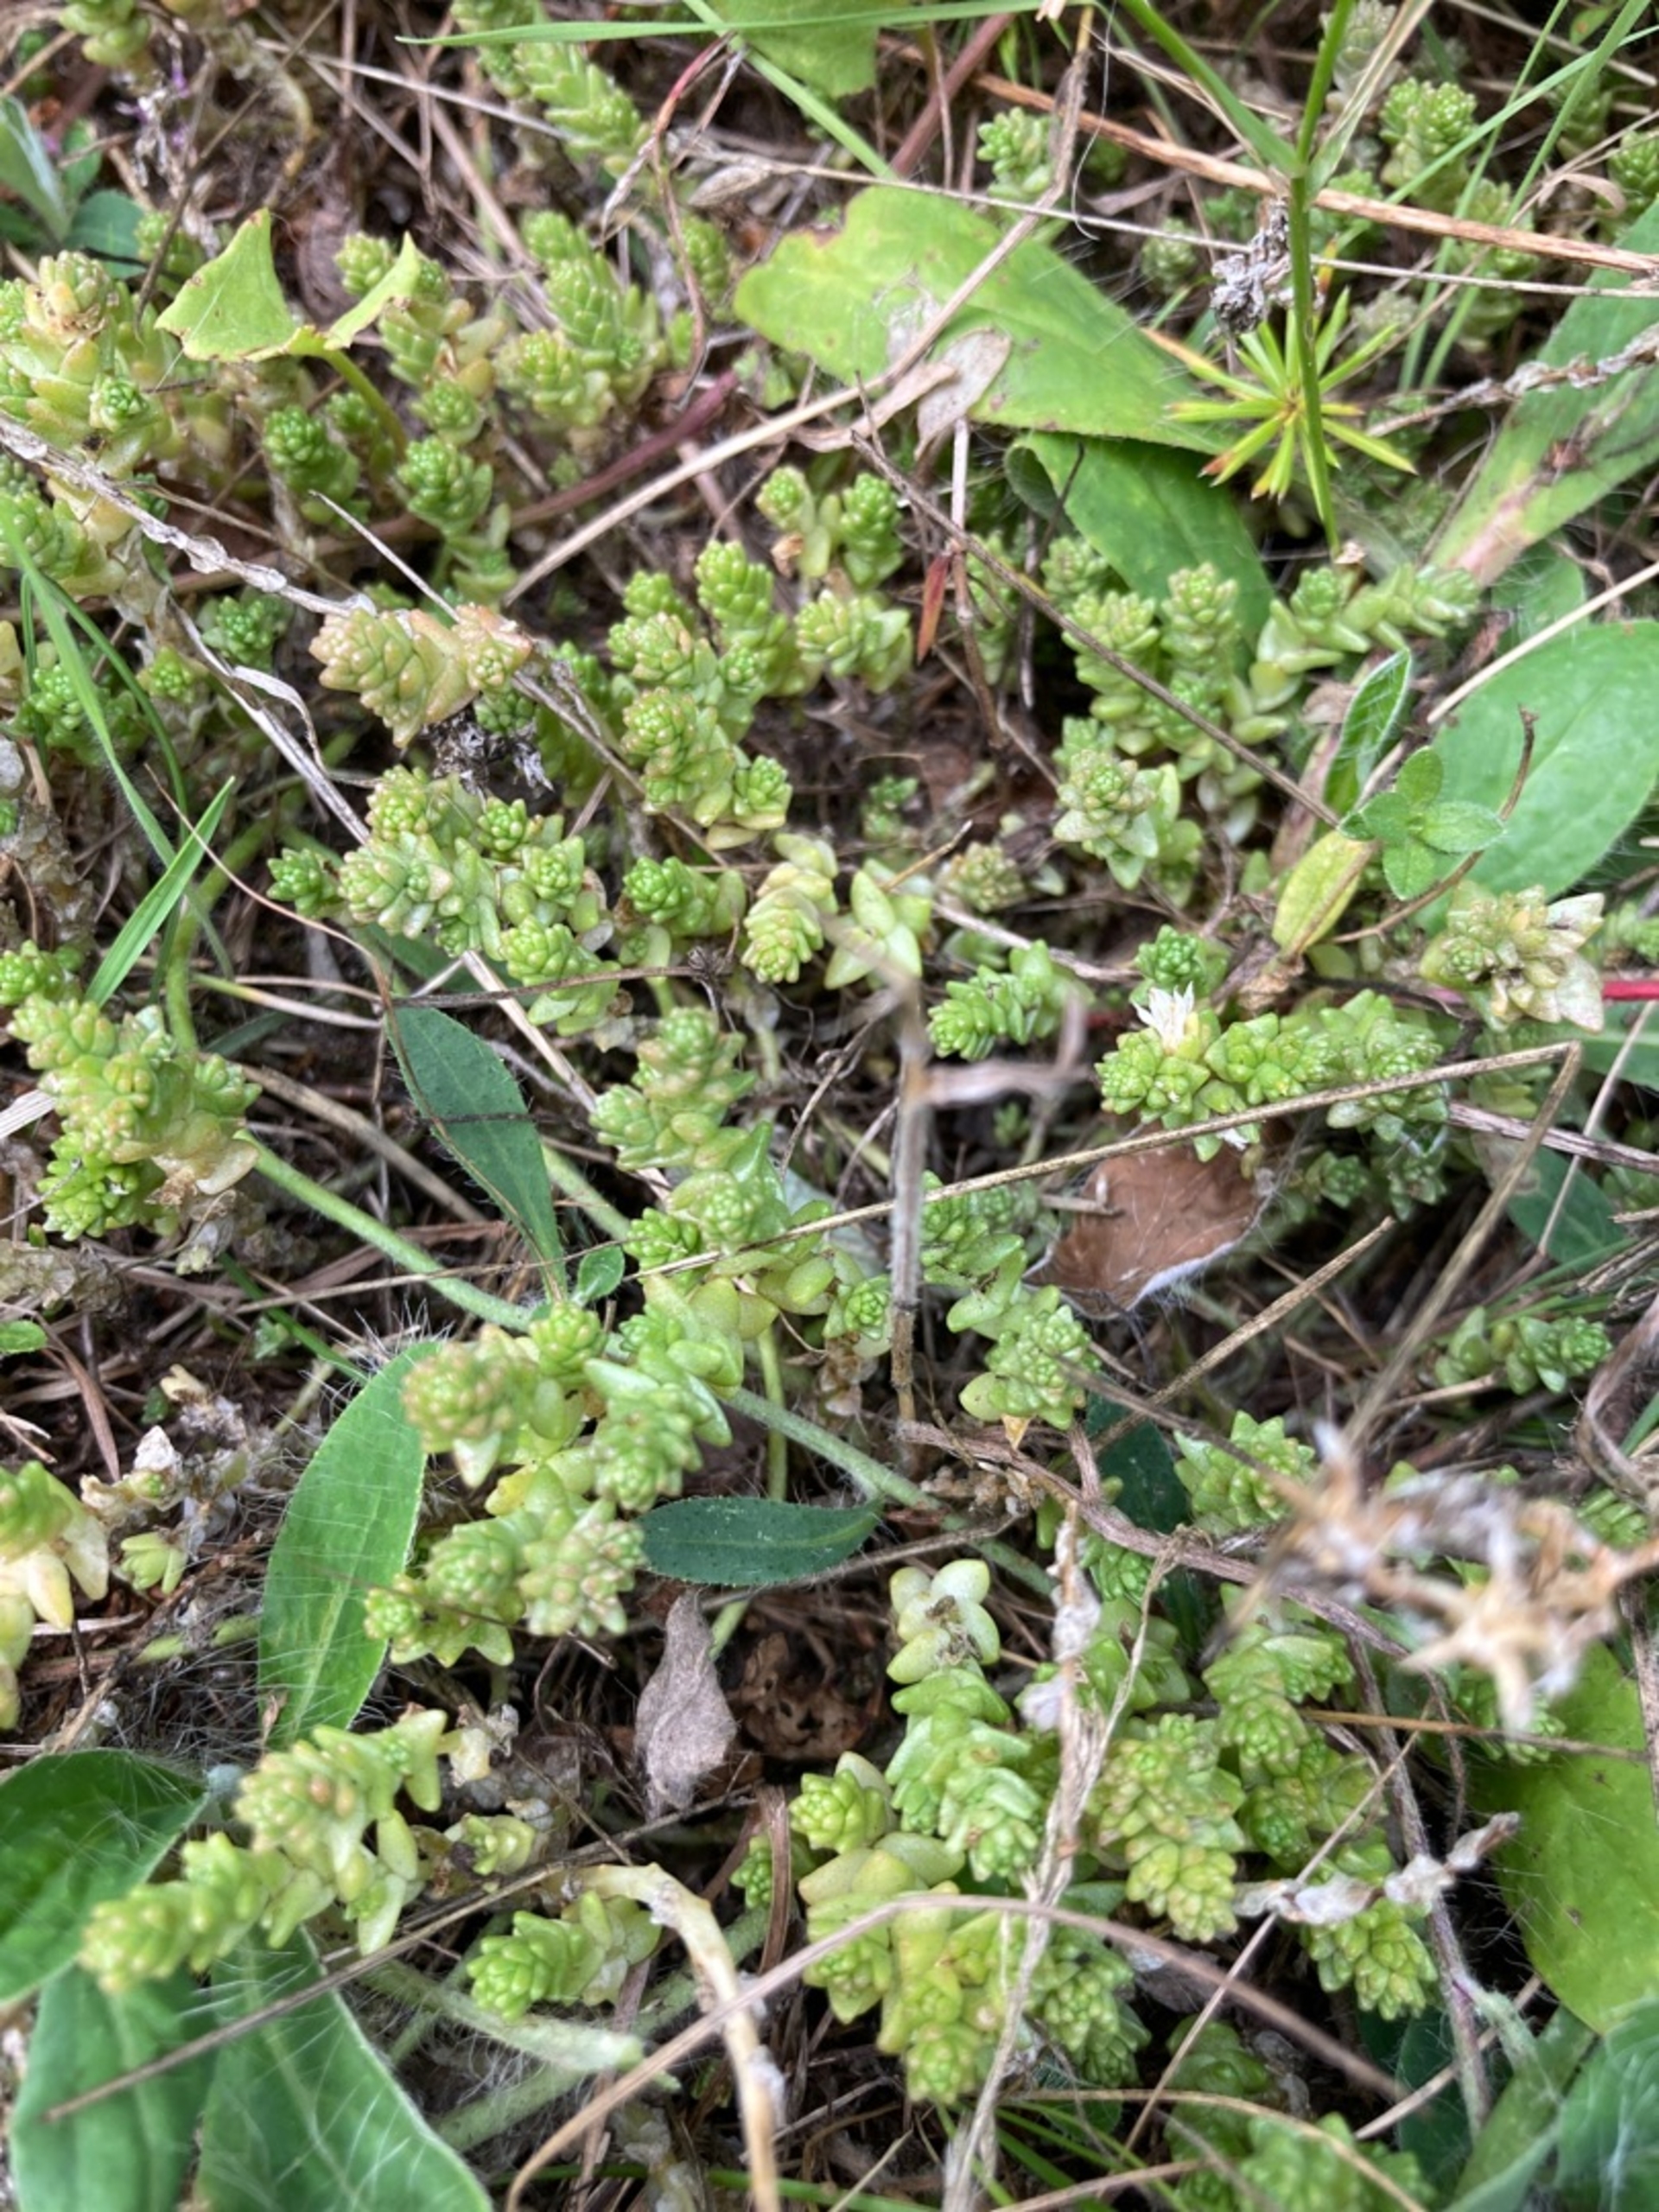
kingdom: Plantae
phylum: Tracheophyta
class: Magnoliopsida
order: Saxifragales
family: Crassulaceae
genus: Sedum
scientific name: Sedum acre
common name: Bidende stenurt
